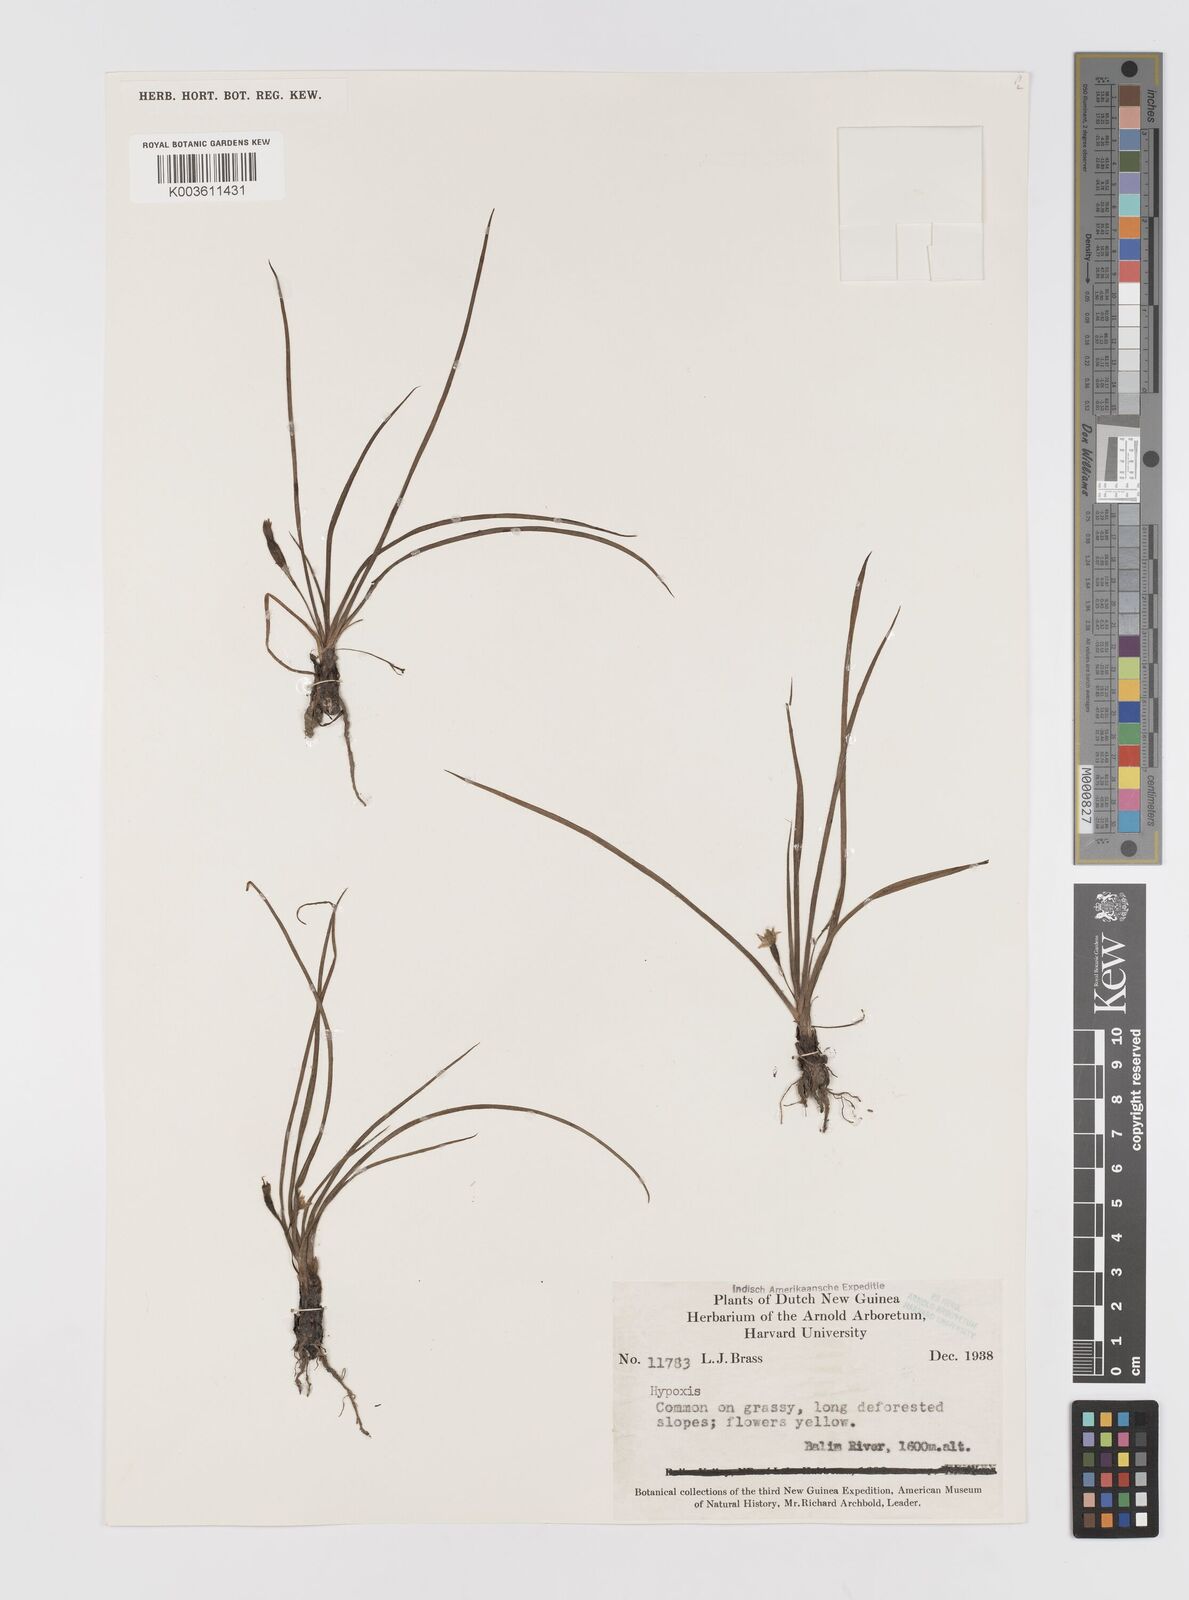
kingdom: Plantae
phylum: Tracheophyta
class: Liliopsida
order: Asparagales
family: Hypoxidaceae
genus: Hypoxis
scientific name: Hypoxis
